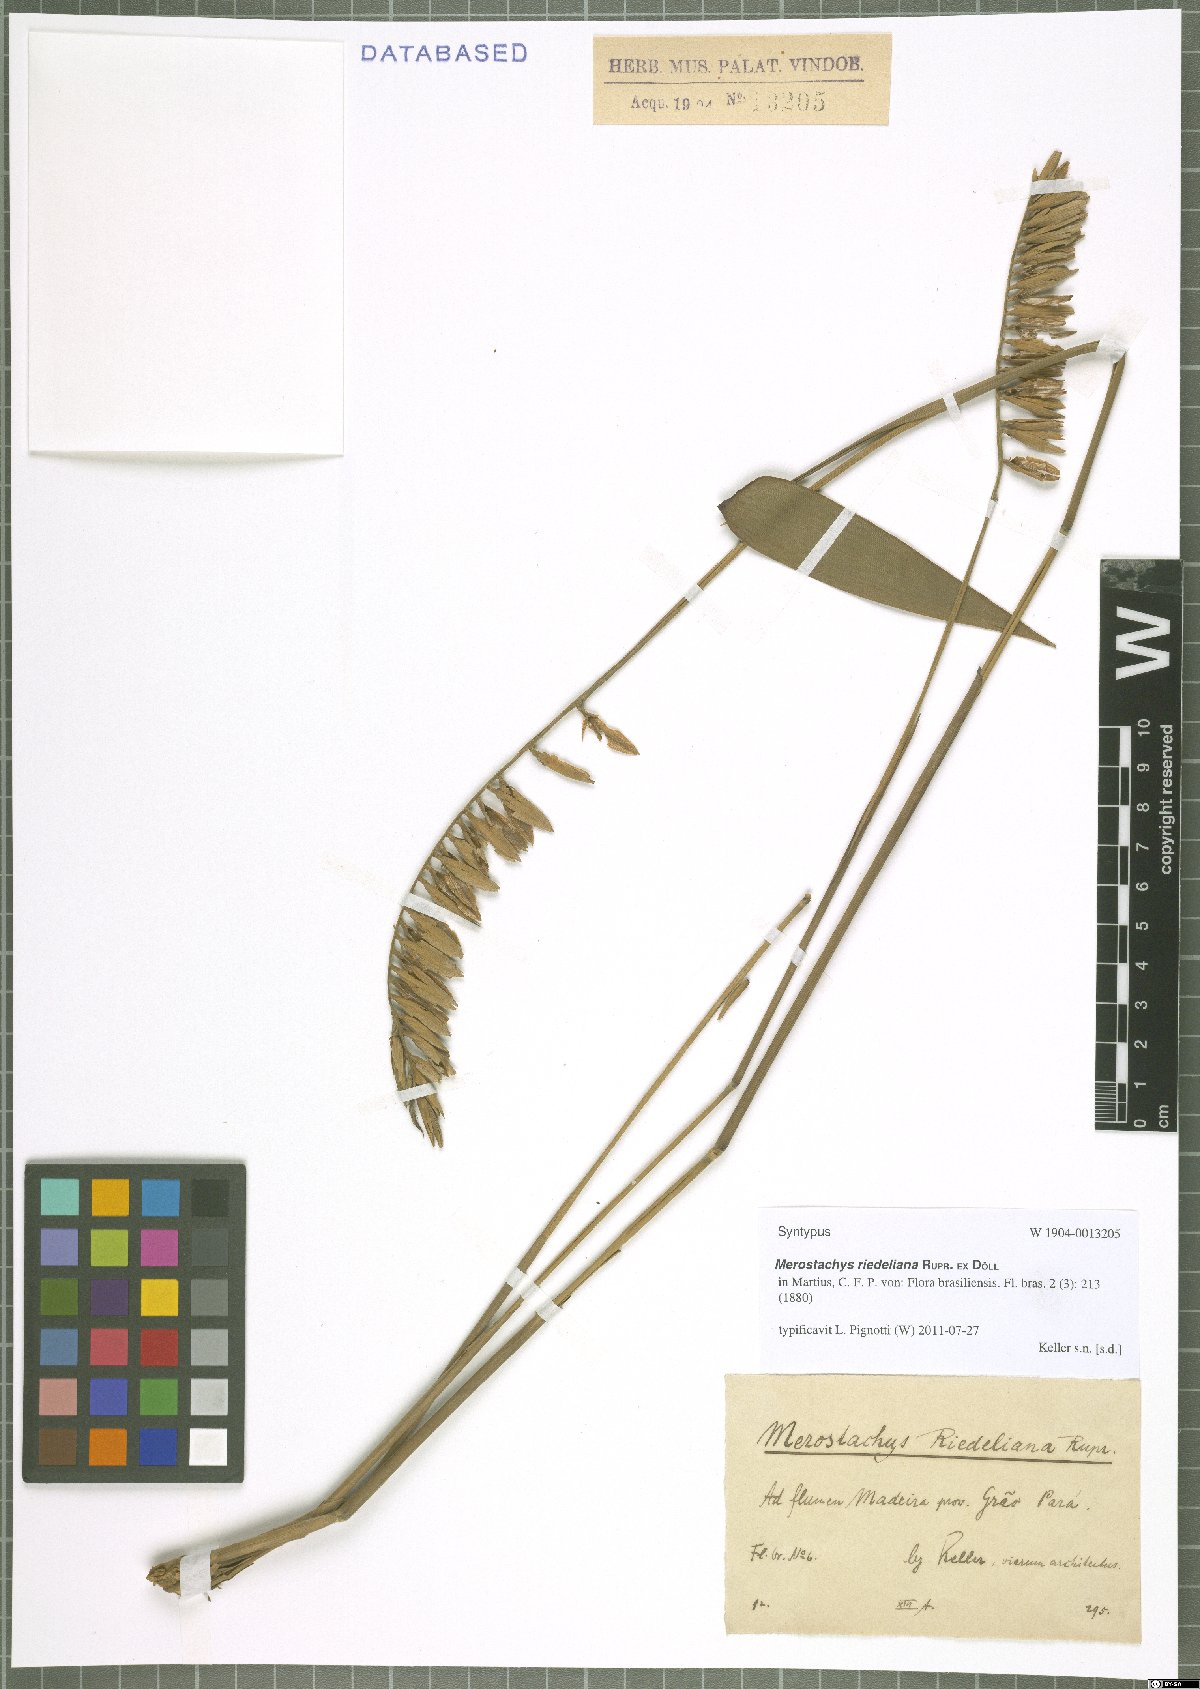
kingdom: Plantae
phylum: Tracheophyta
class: Liliopsida
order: Poales
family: Poaceae
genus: Merostachys
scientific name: Merostachys riedeliana
